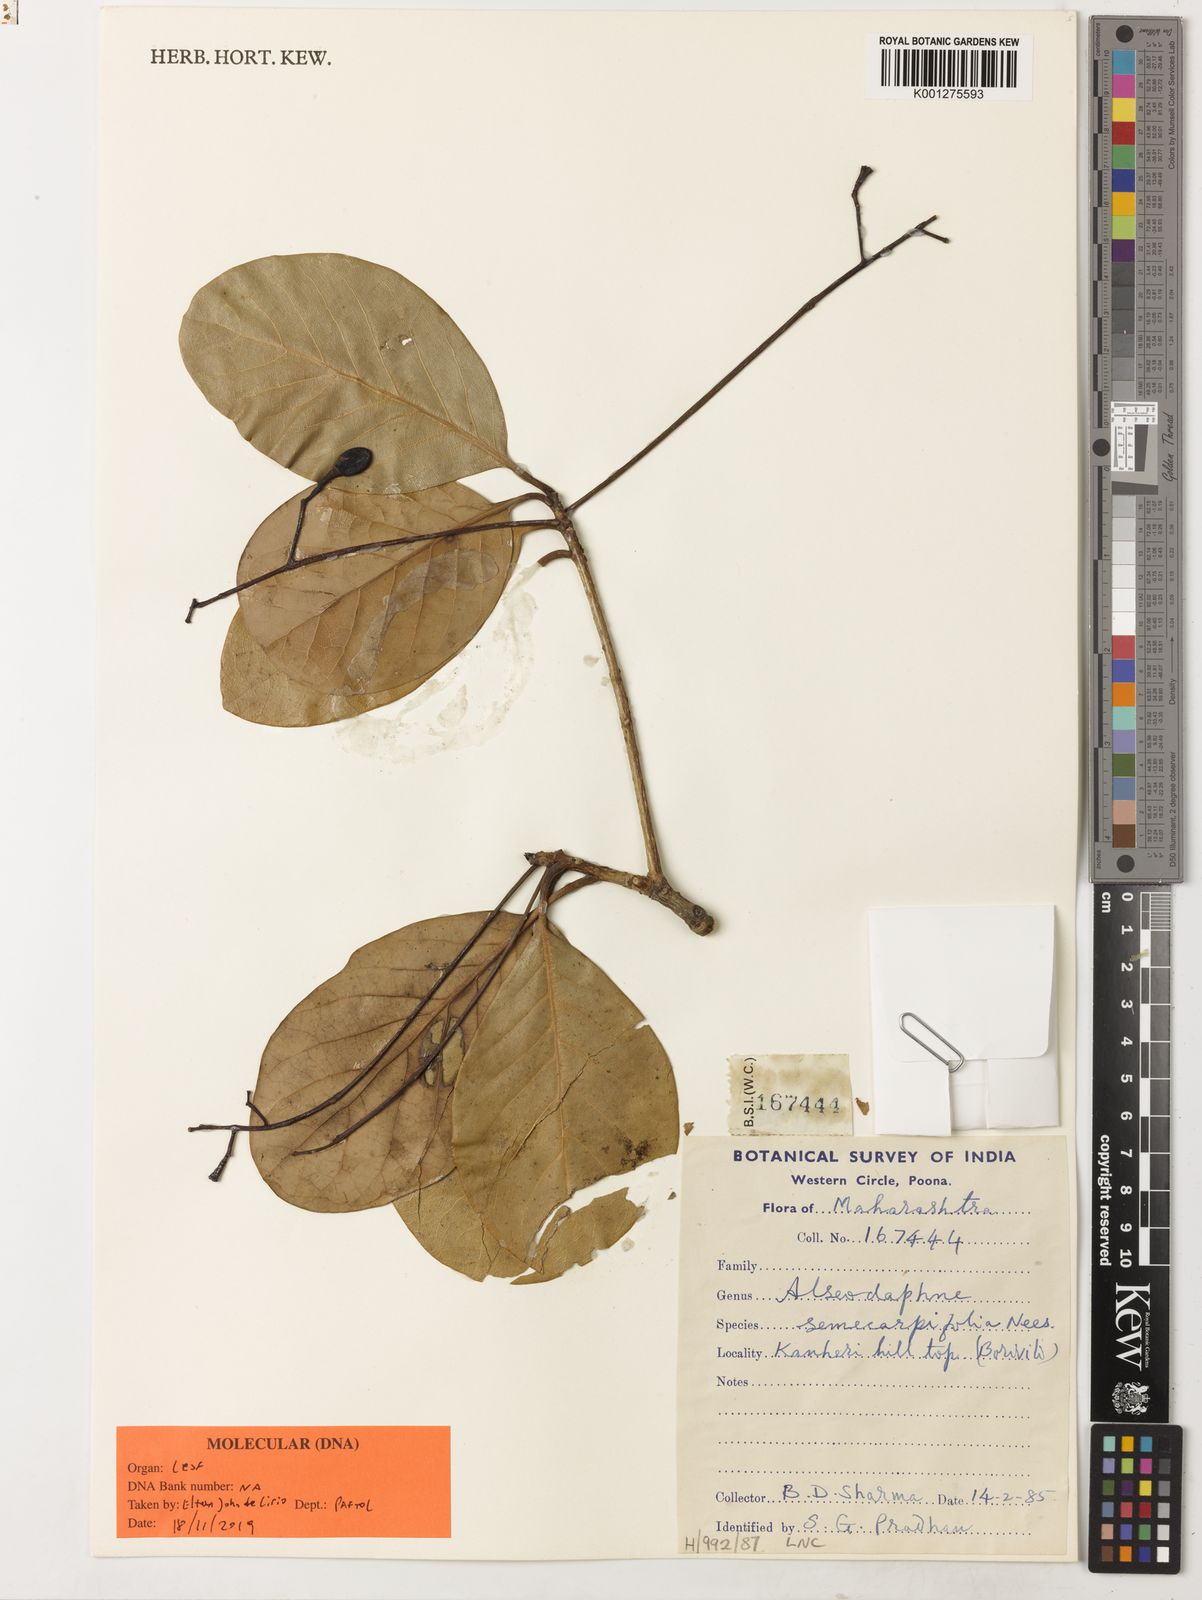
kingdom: Plantae
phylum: Tracheophyta
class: Magnoliopsida
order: Laurales
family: Lauraceae
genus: Alseodaphne
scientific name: Alseodaphne semecarpifolia
